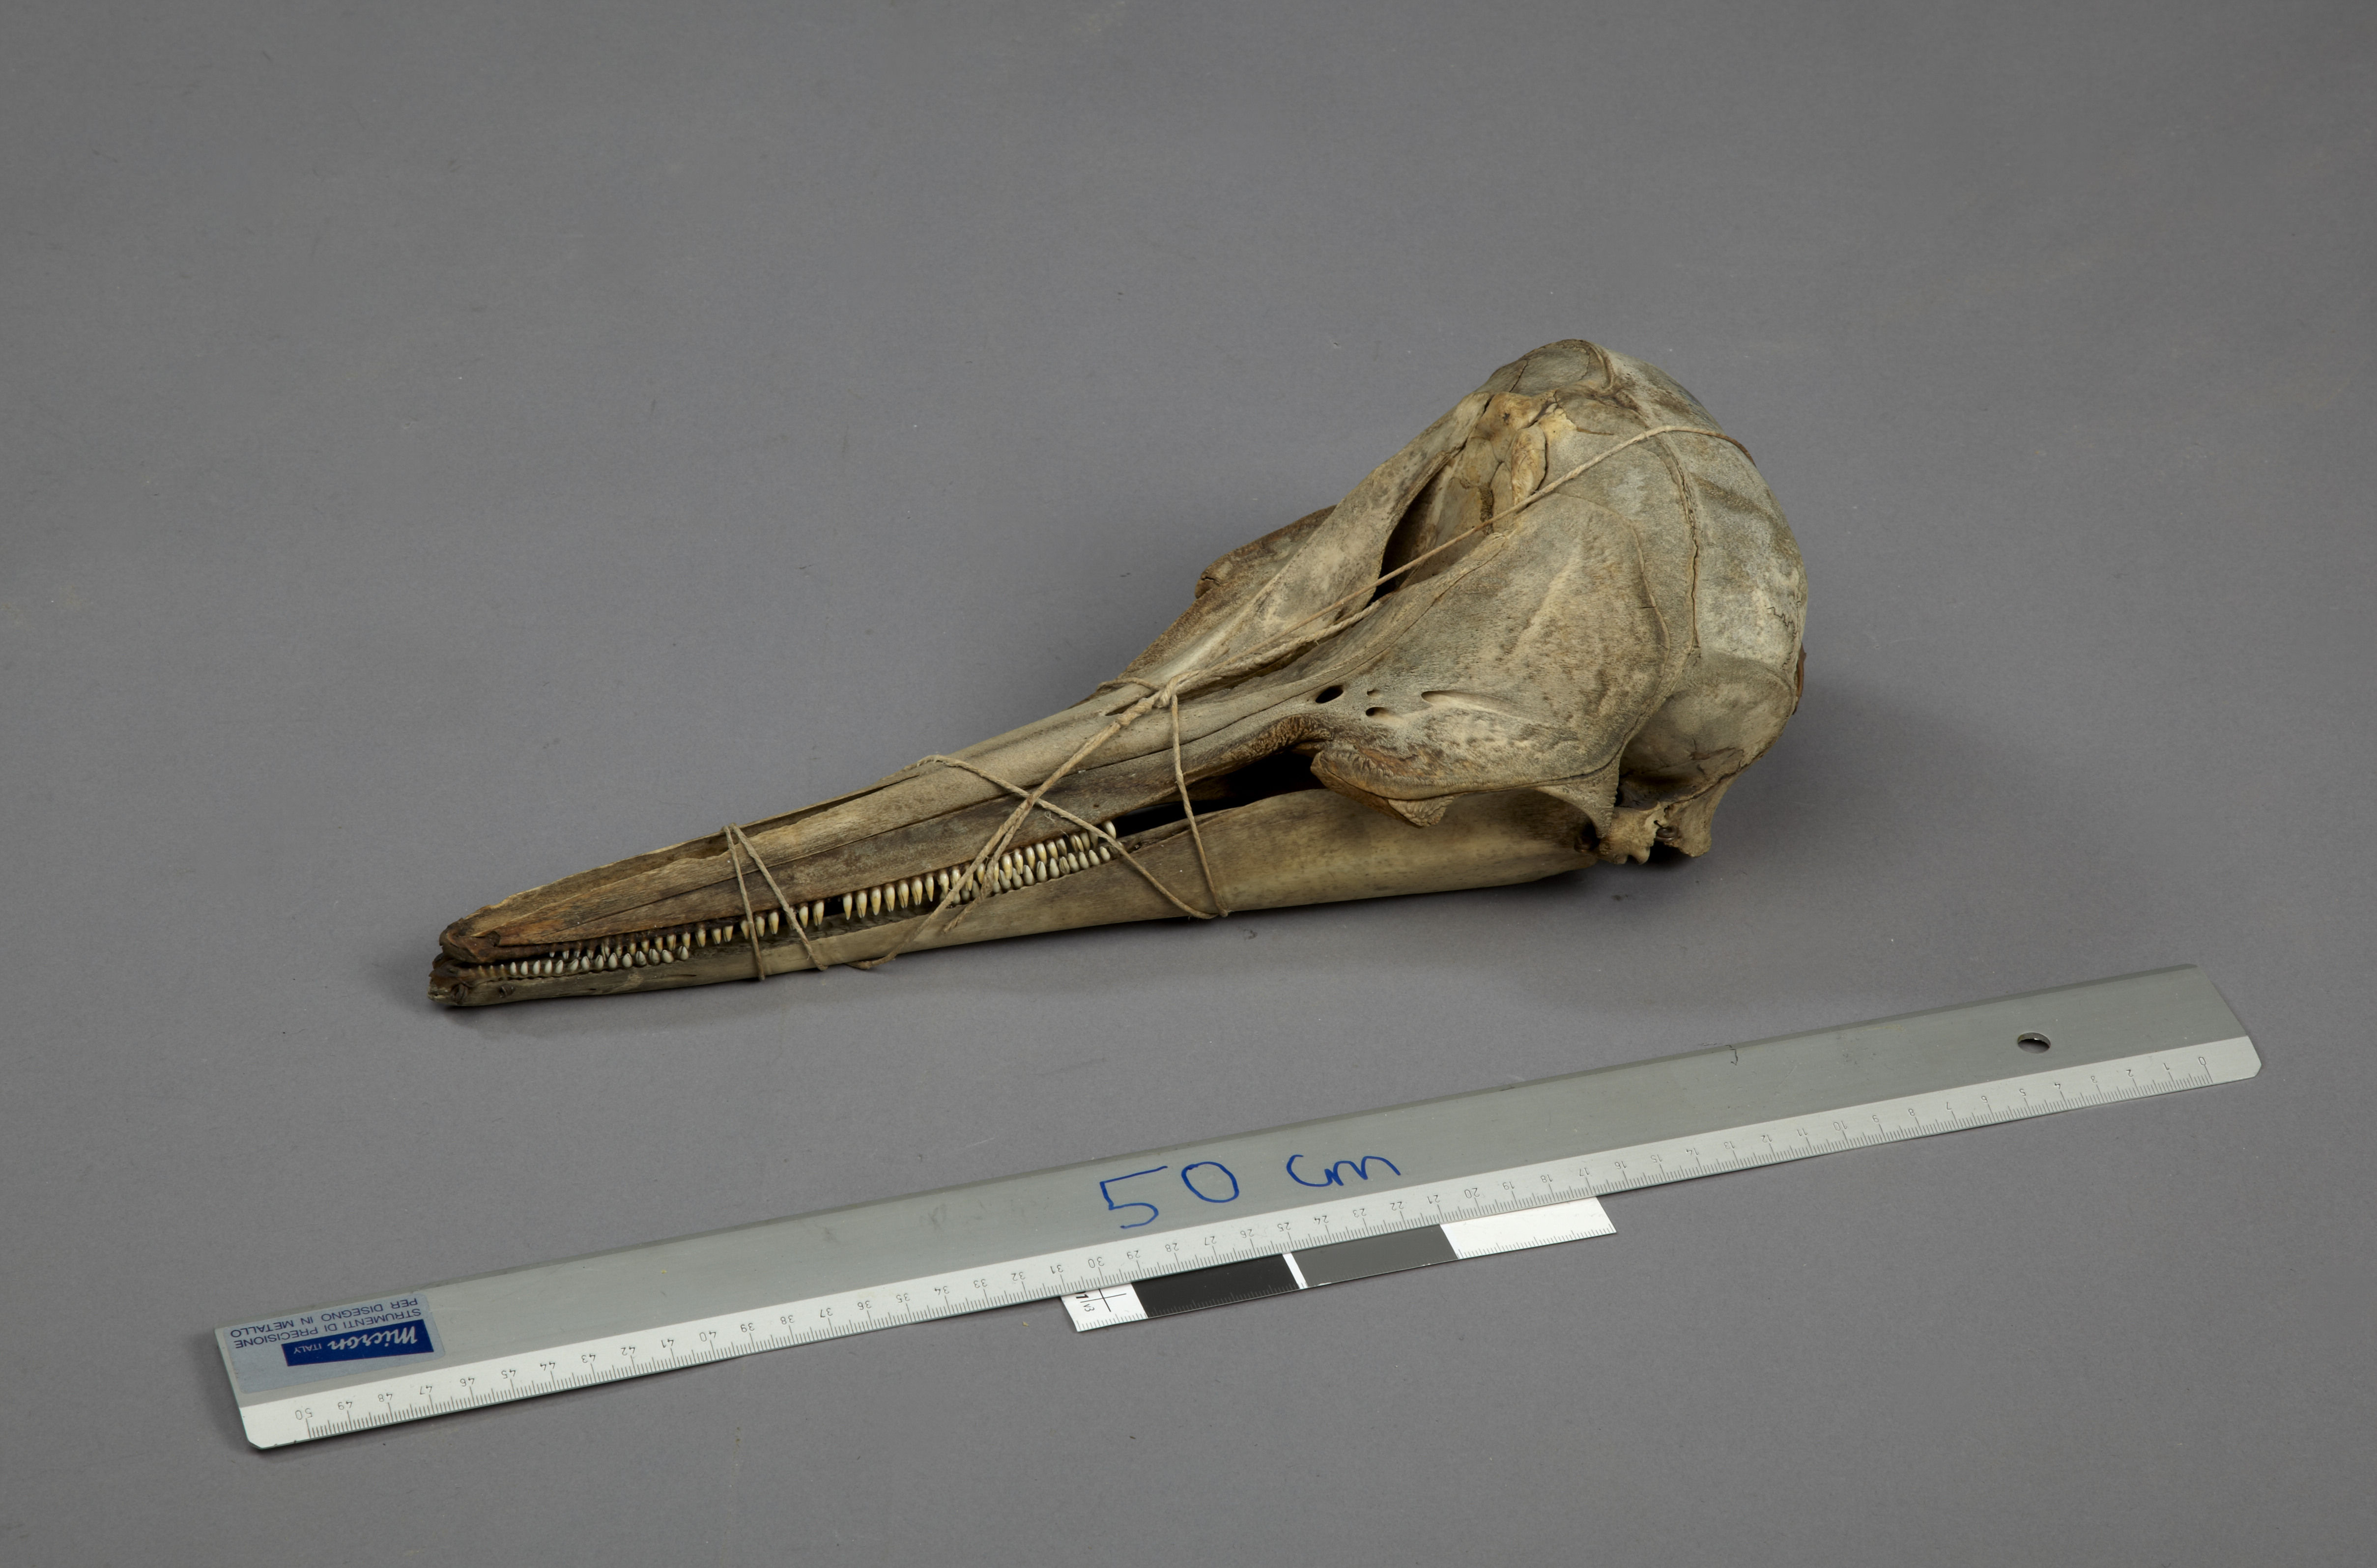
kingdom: Animalia
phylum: Chordata
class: Mammalia
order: Cetacea
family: Delphinidae
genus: Delphinus
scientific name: Delphinus delphis
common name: Common dolphin
